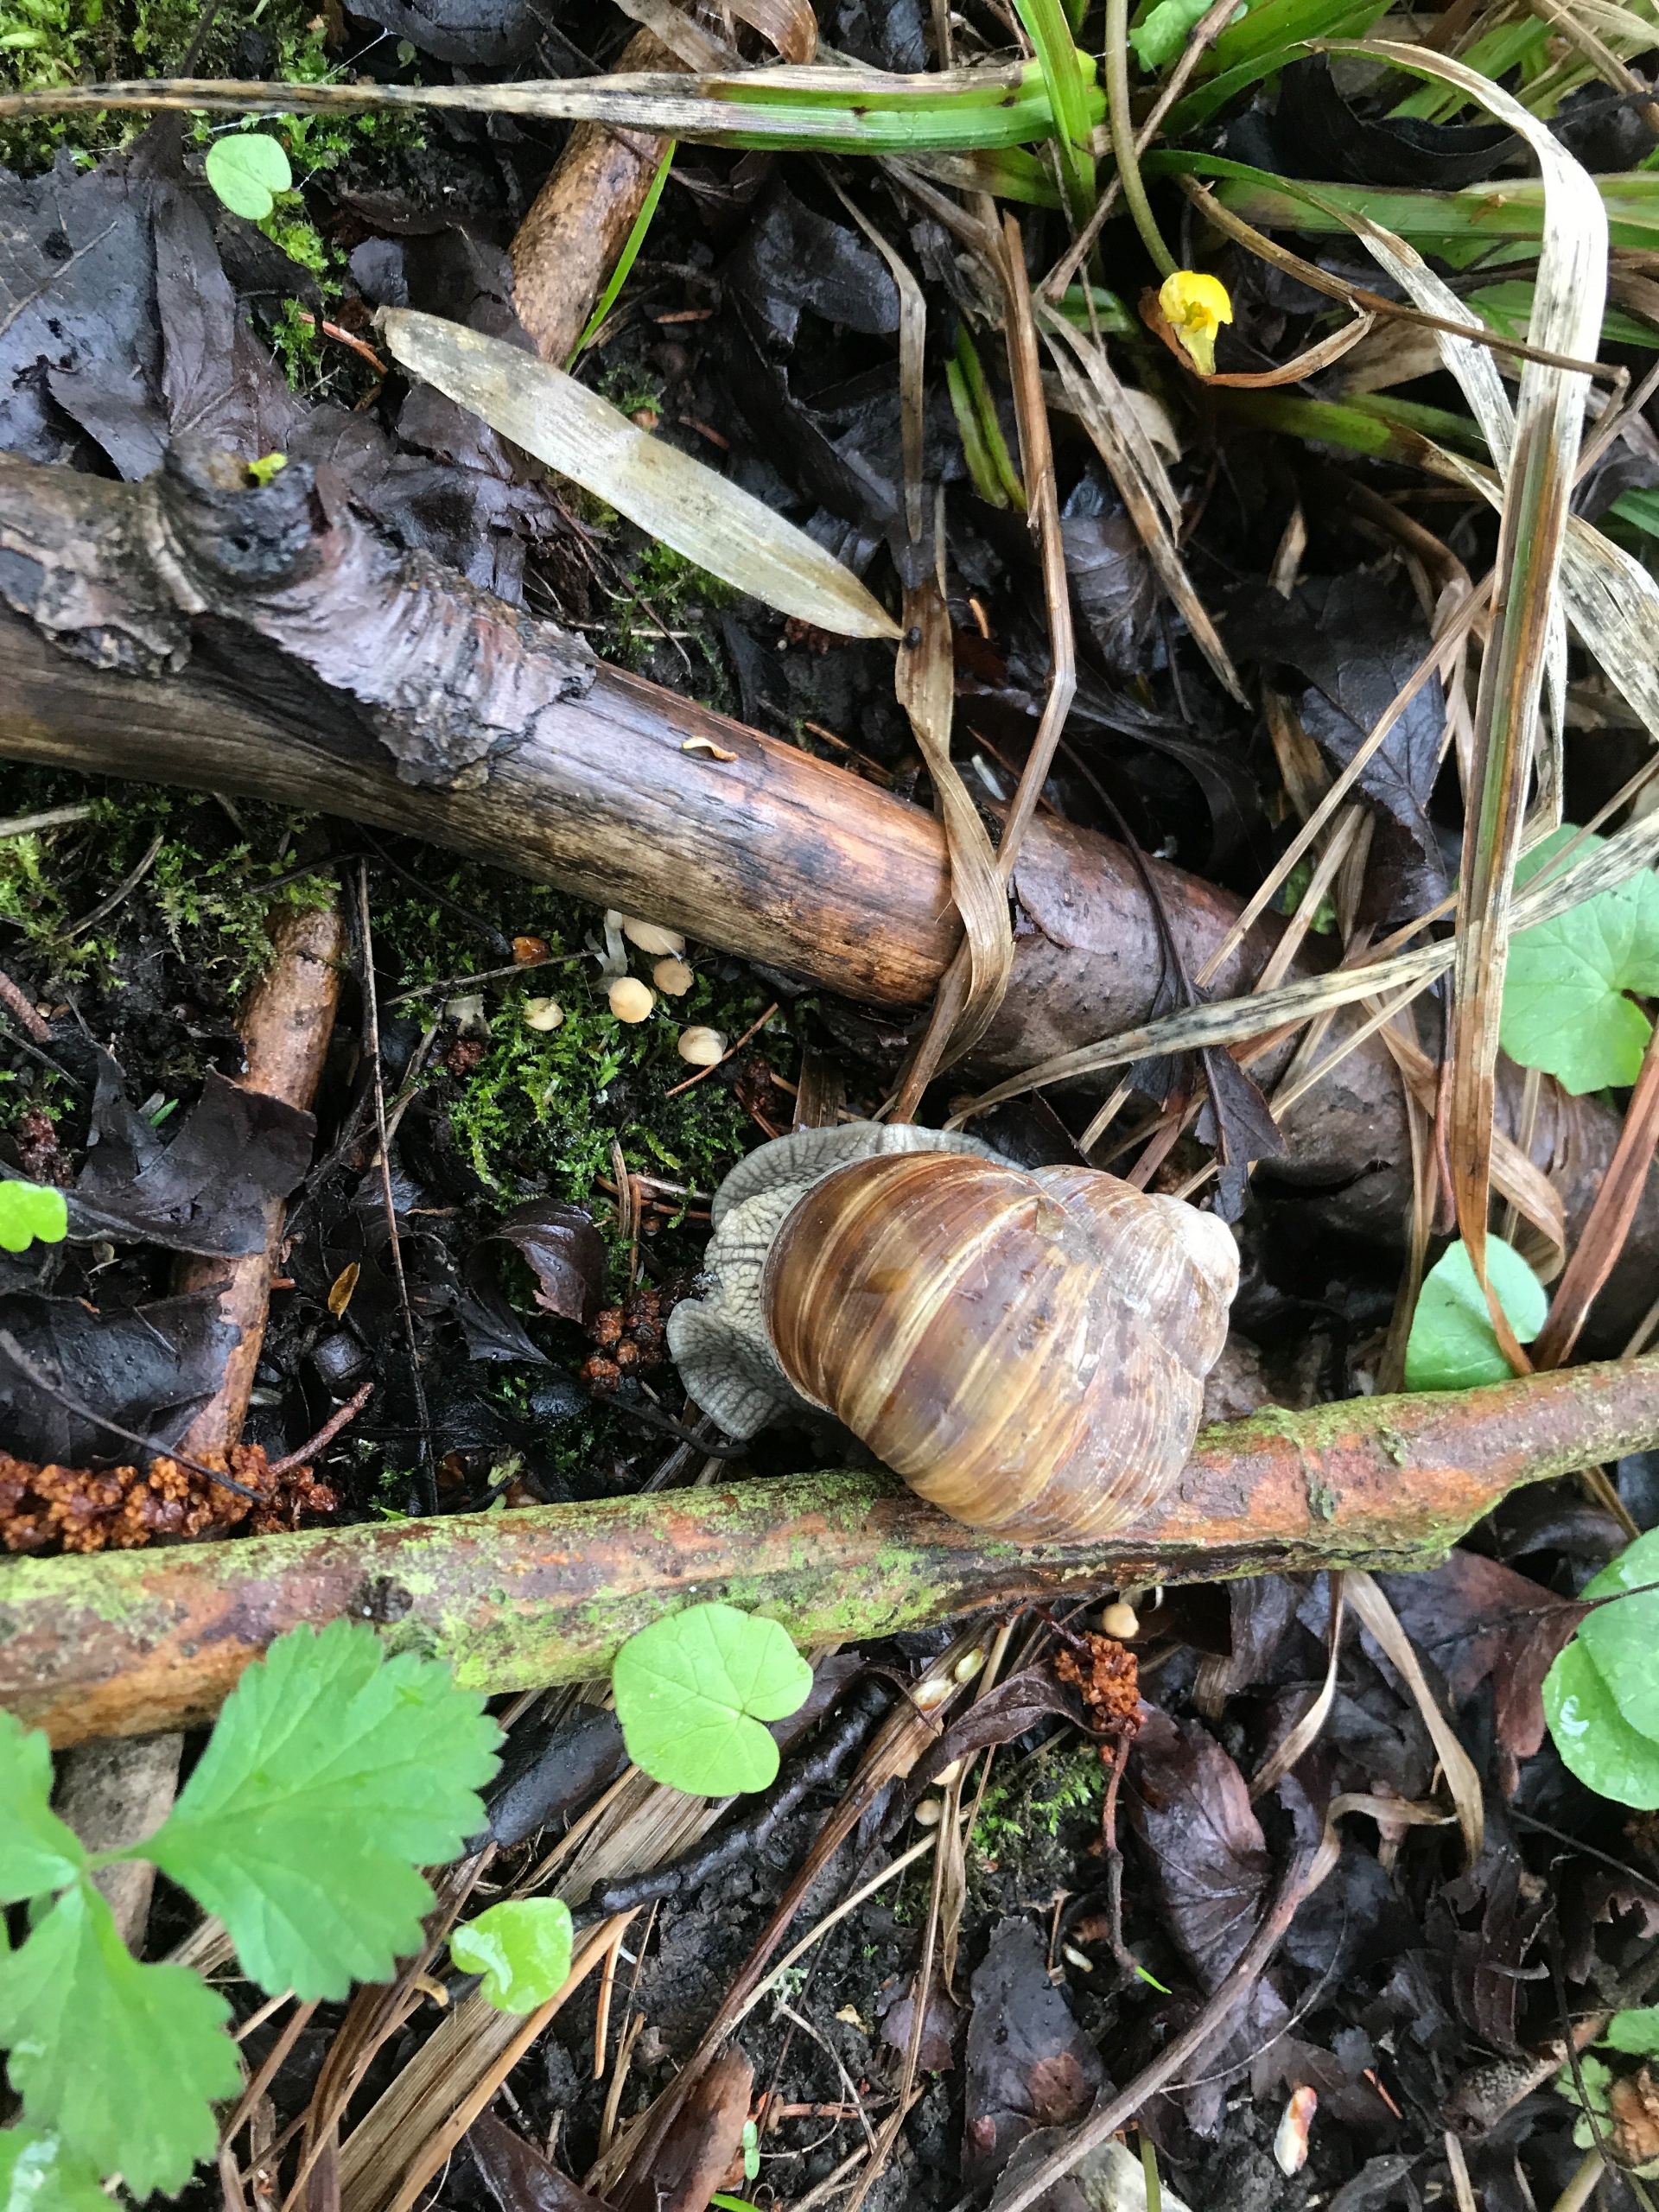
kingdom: Animalia
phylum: Mollusca
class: Gastropoda
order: Stylommatophora
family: Helicidae
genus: Helix
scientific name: Helix pomatia
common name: Vinbjergsnegl
